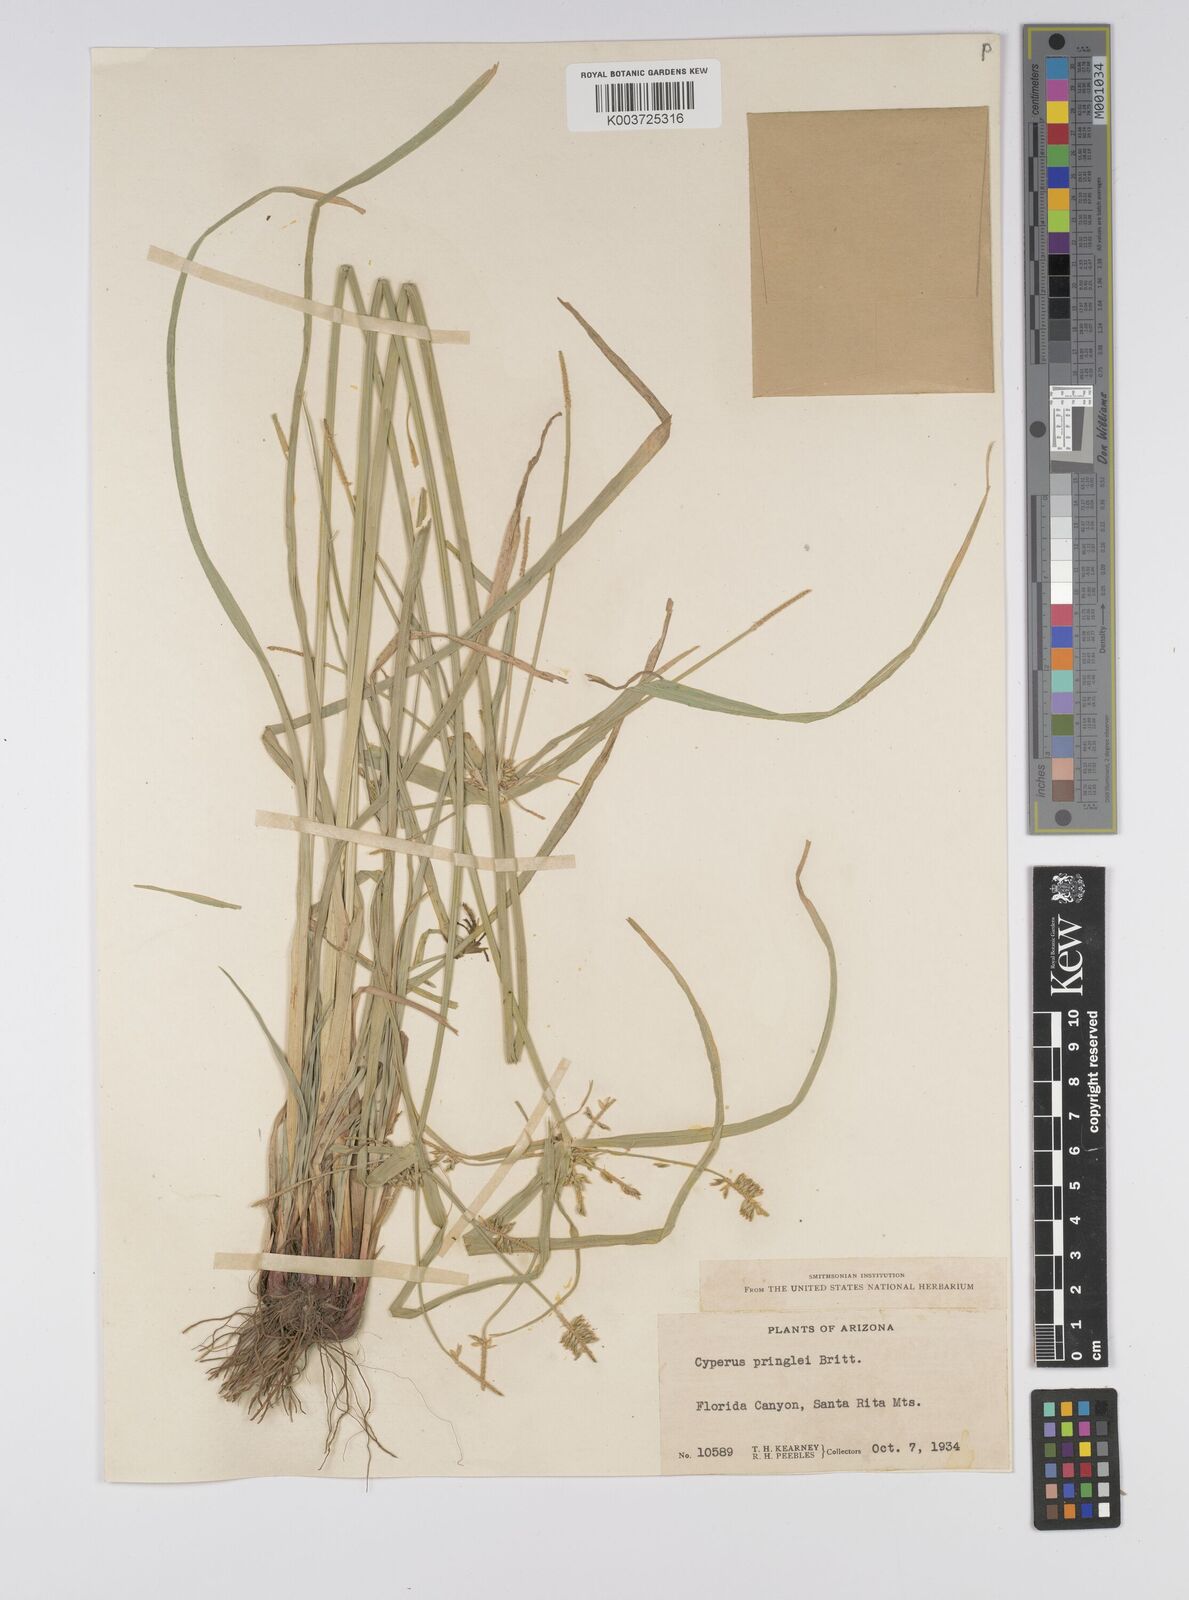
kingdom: Plantae
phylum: Tracheophyta
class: Liliopsida
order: Poales
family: Cyperaceae
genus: Cyperus
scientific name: Cyperus tetragonus
